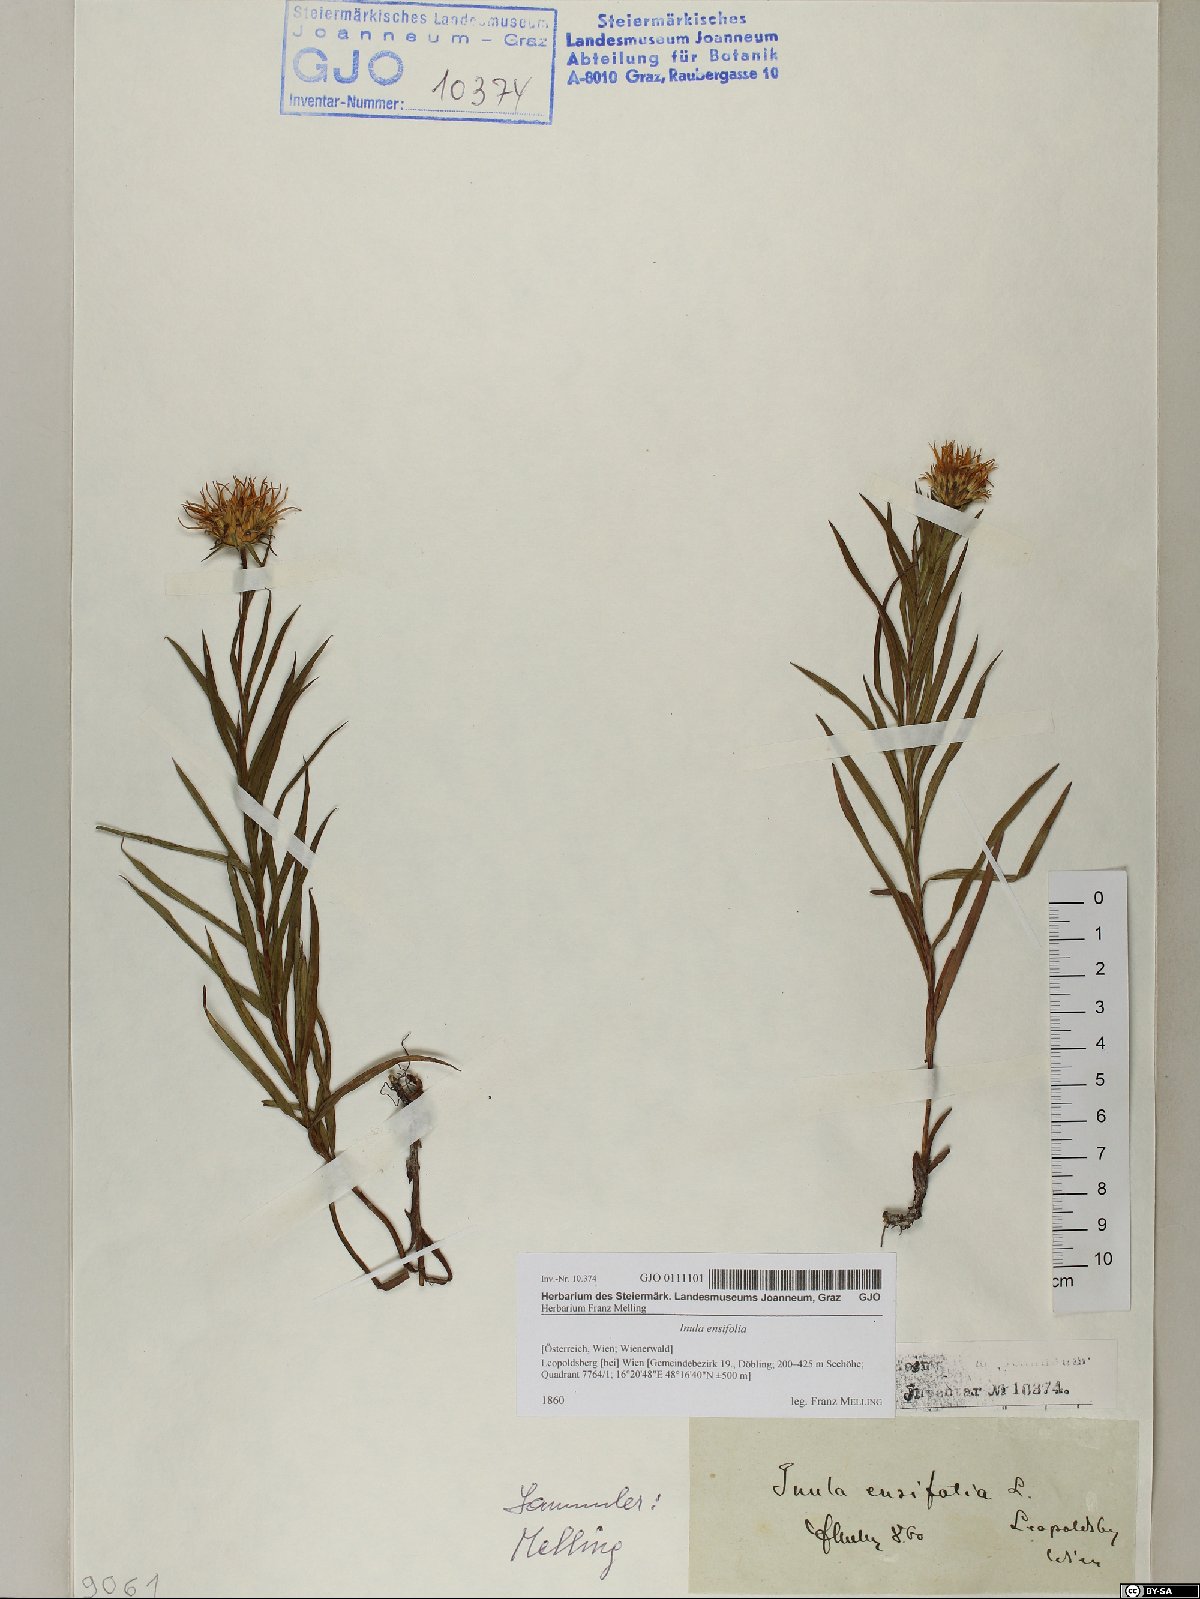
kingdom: Plantae
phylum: Tracheophyta
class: Magnoliopsida
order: Asterales
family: Asteraceae
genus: Pentanema
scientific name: Pentanema ensifolium
